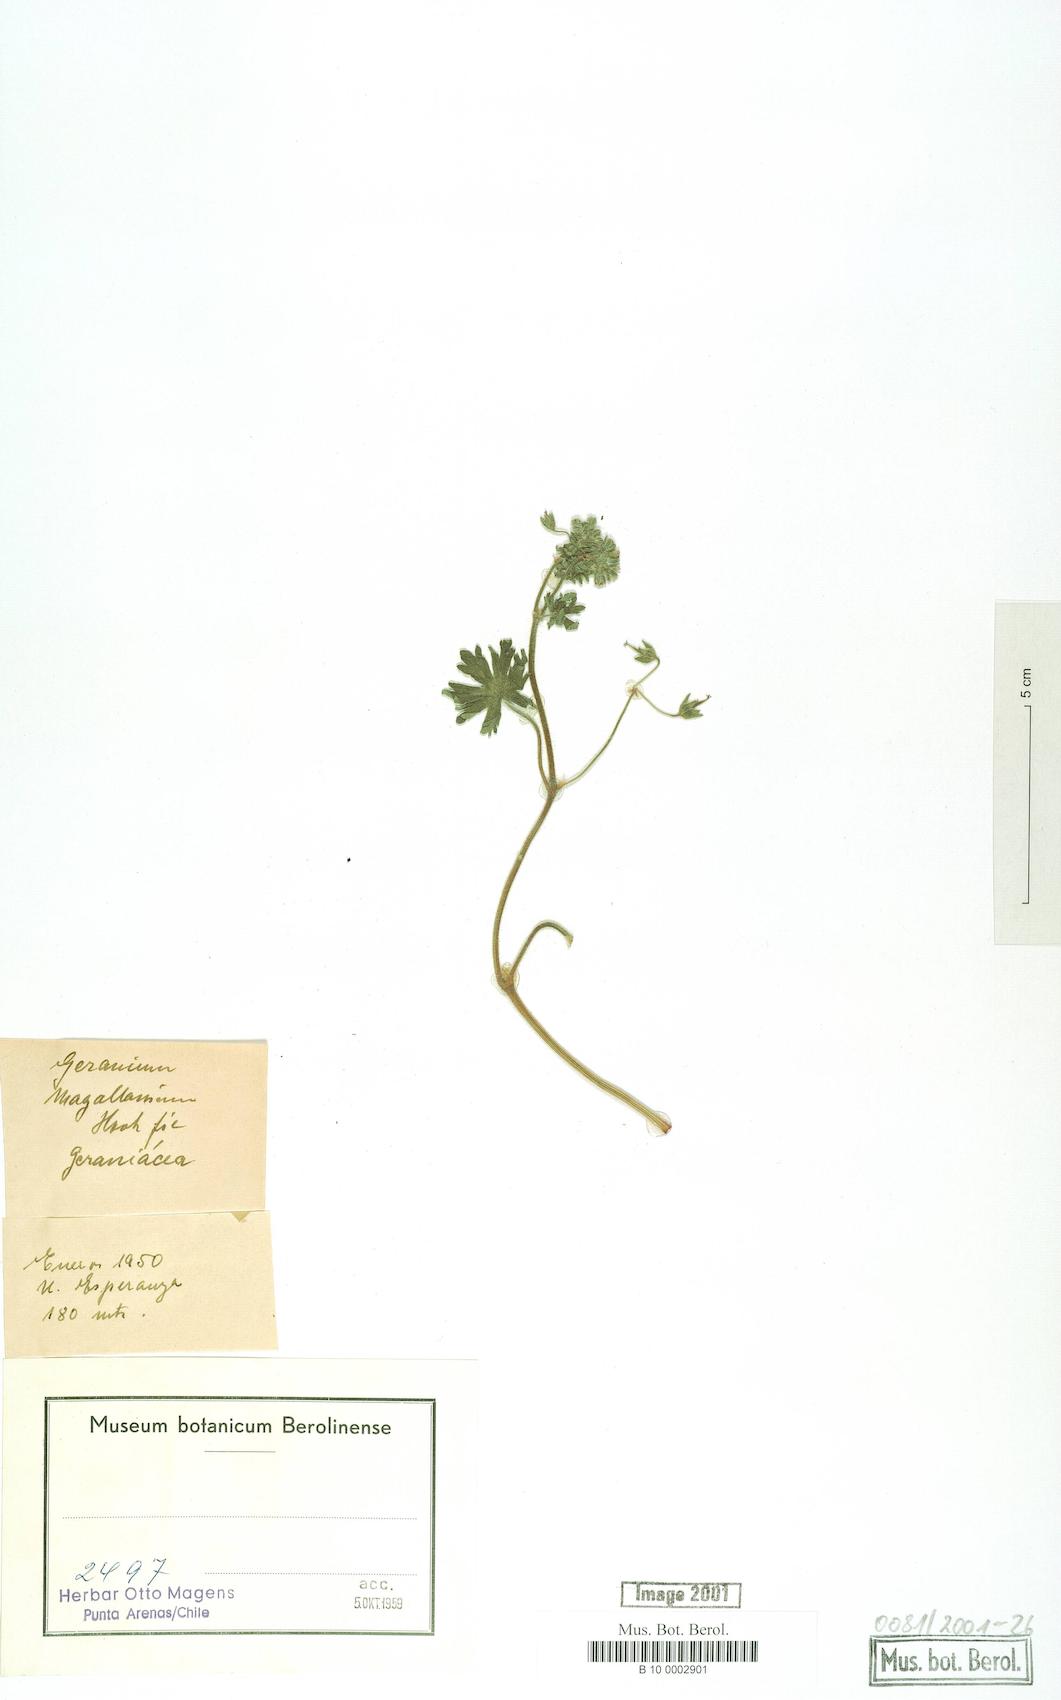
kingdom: Plantae
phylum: Tracheophyta
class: Magnoliopsida
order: Geraniales
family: Geraniaceae
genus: Geranium
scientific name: Geranium magellanicum
